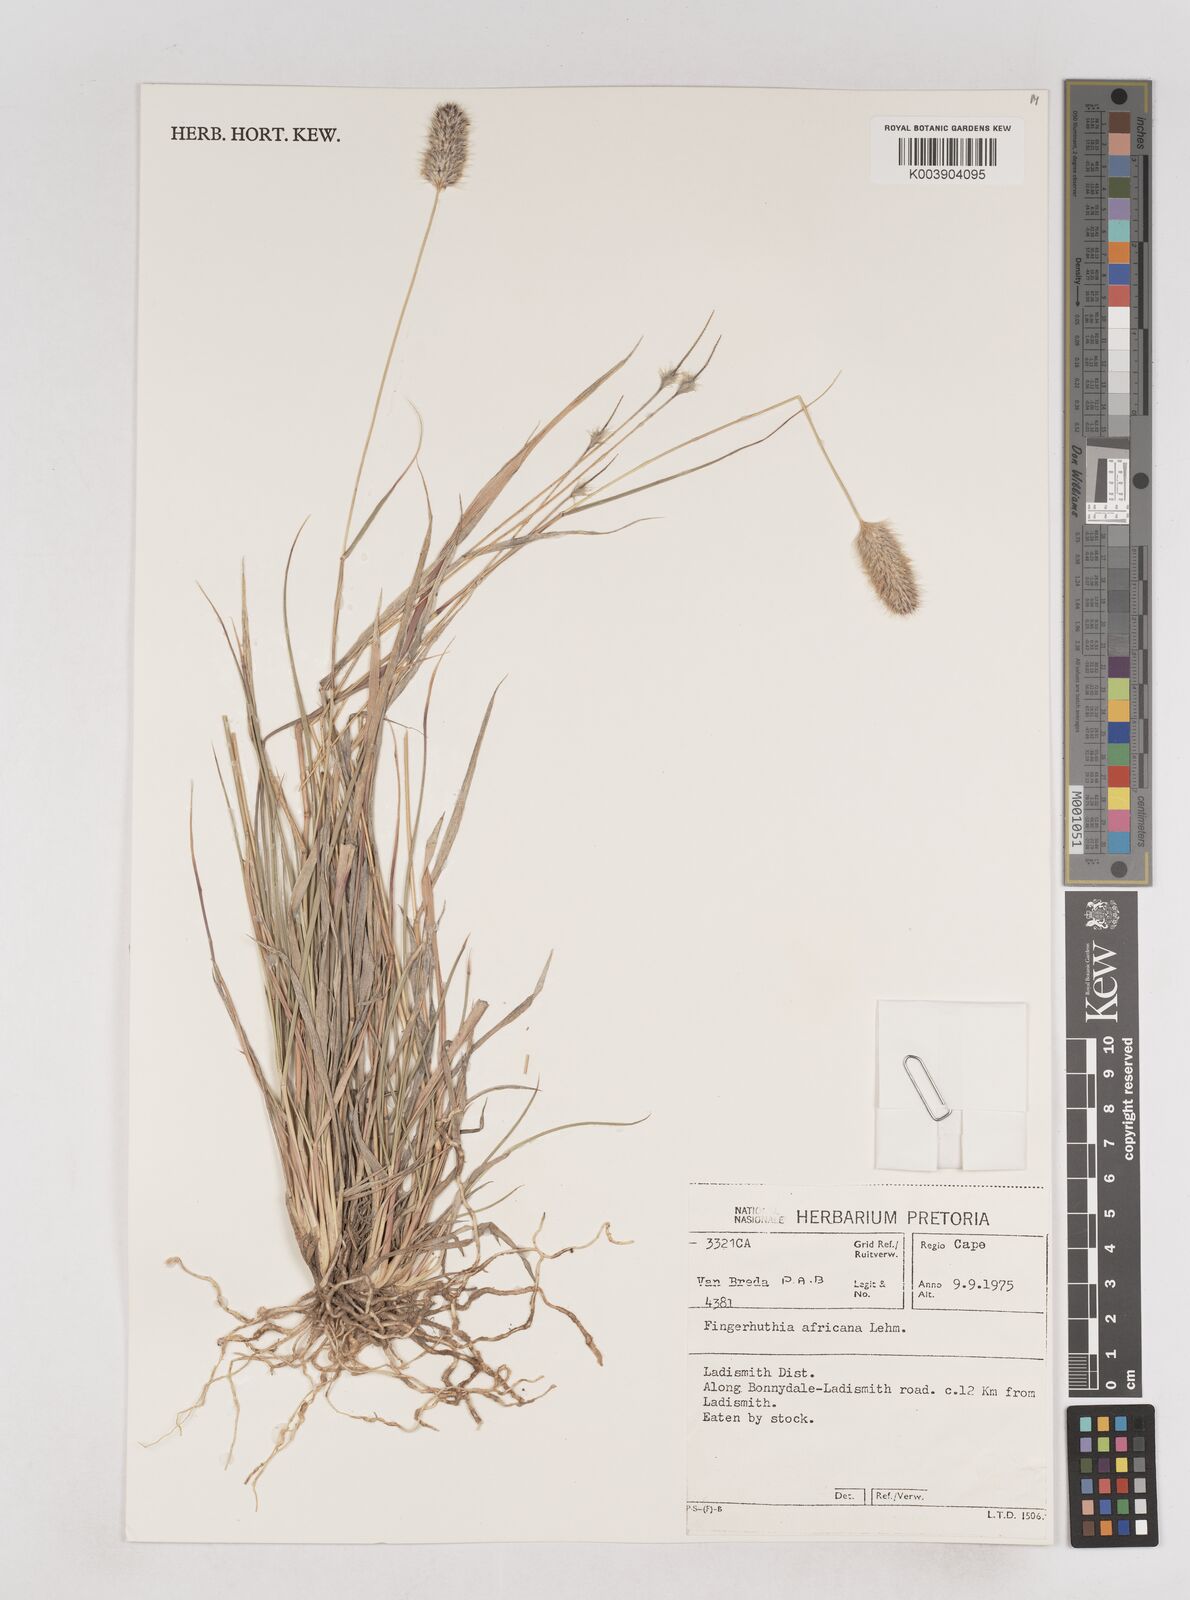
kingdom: Plantae
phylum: Tracheophyta
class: Liliopsida
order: Poales
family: Poaceae
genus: Fingerhuthia
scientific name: Fingerhuthia africana
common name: Zulu fescue
